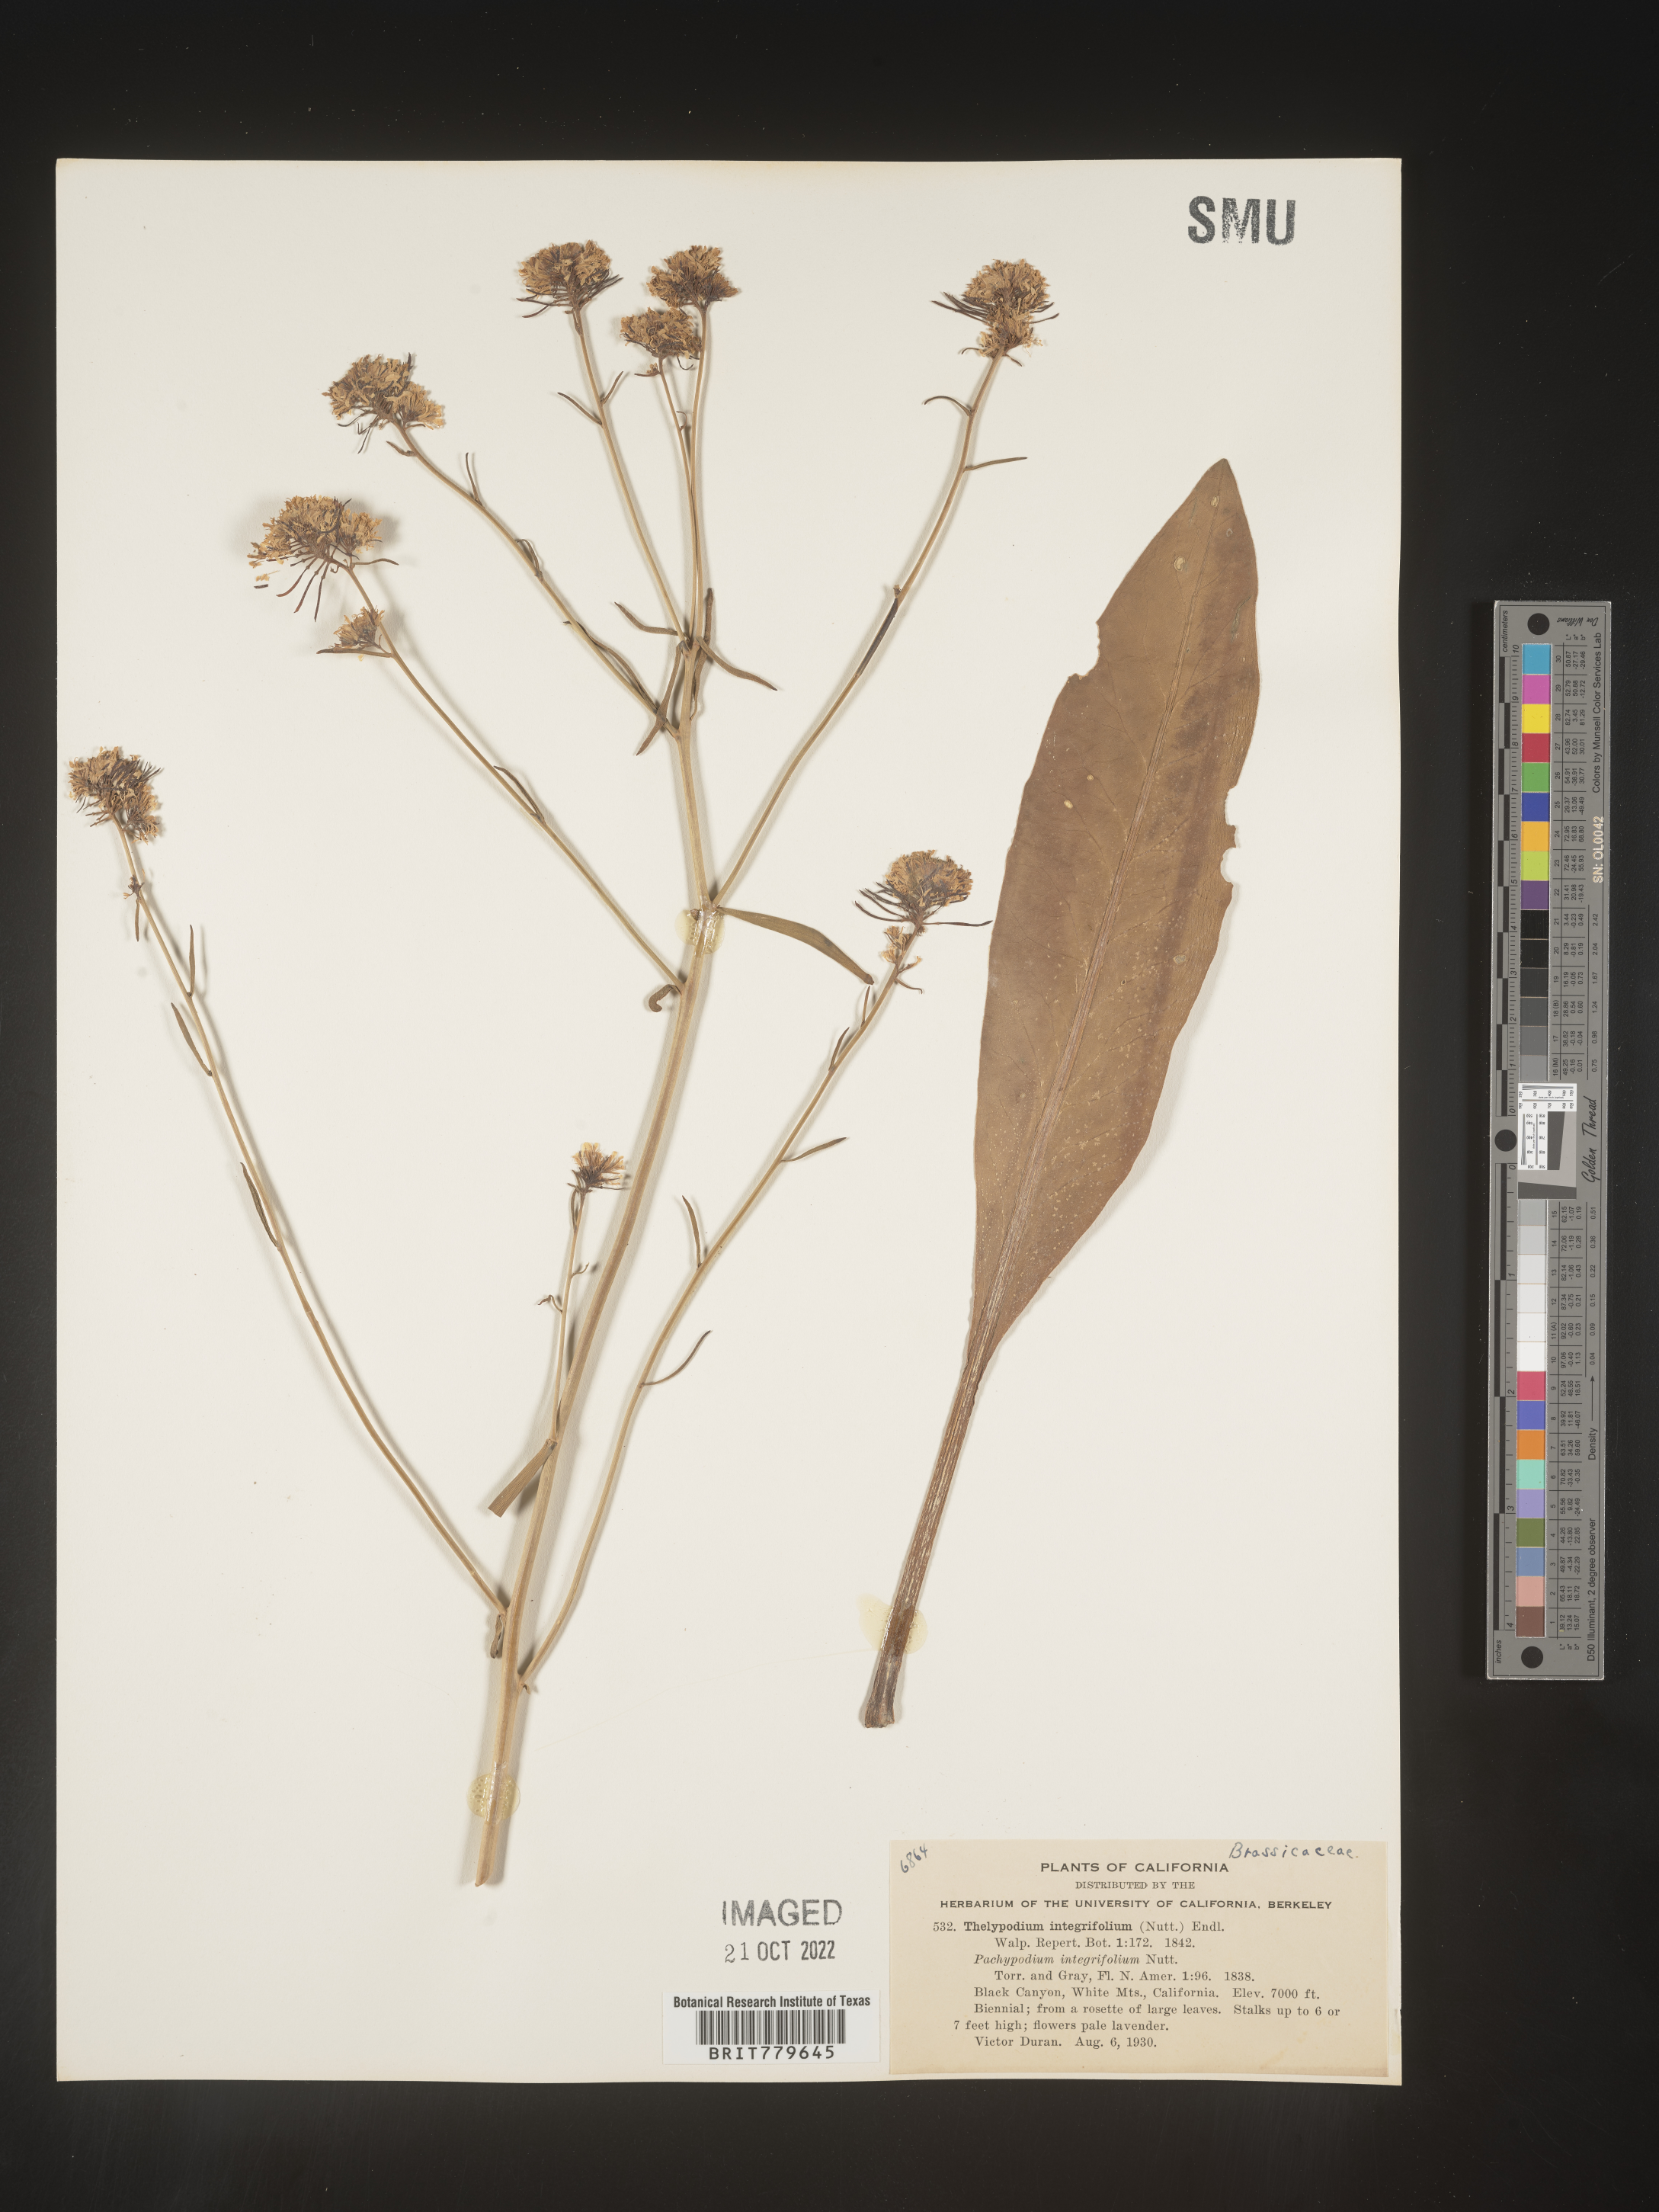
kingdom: Plantae
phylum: Tracheophyta
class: Magnoliopsida
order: Brassicales
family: Brassicaceae
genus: Thelypodium
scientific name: Thelypodium
